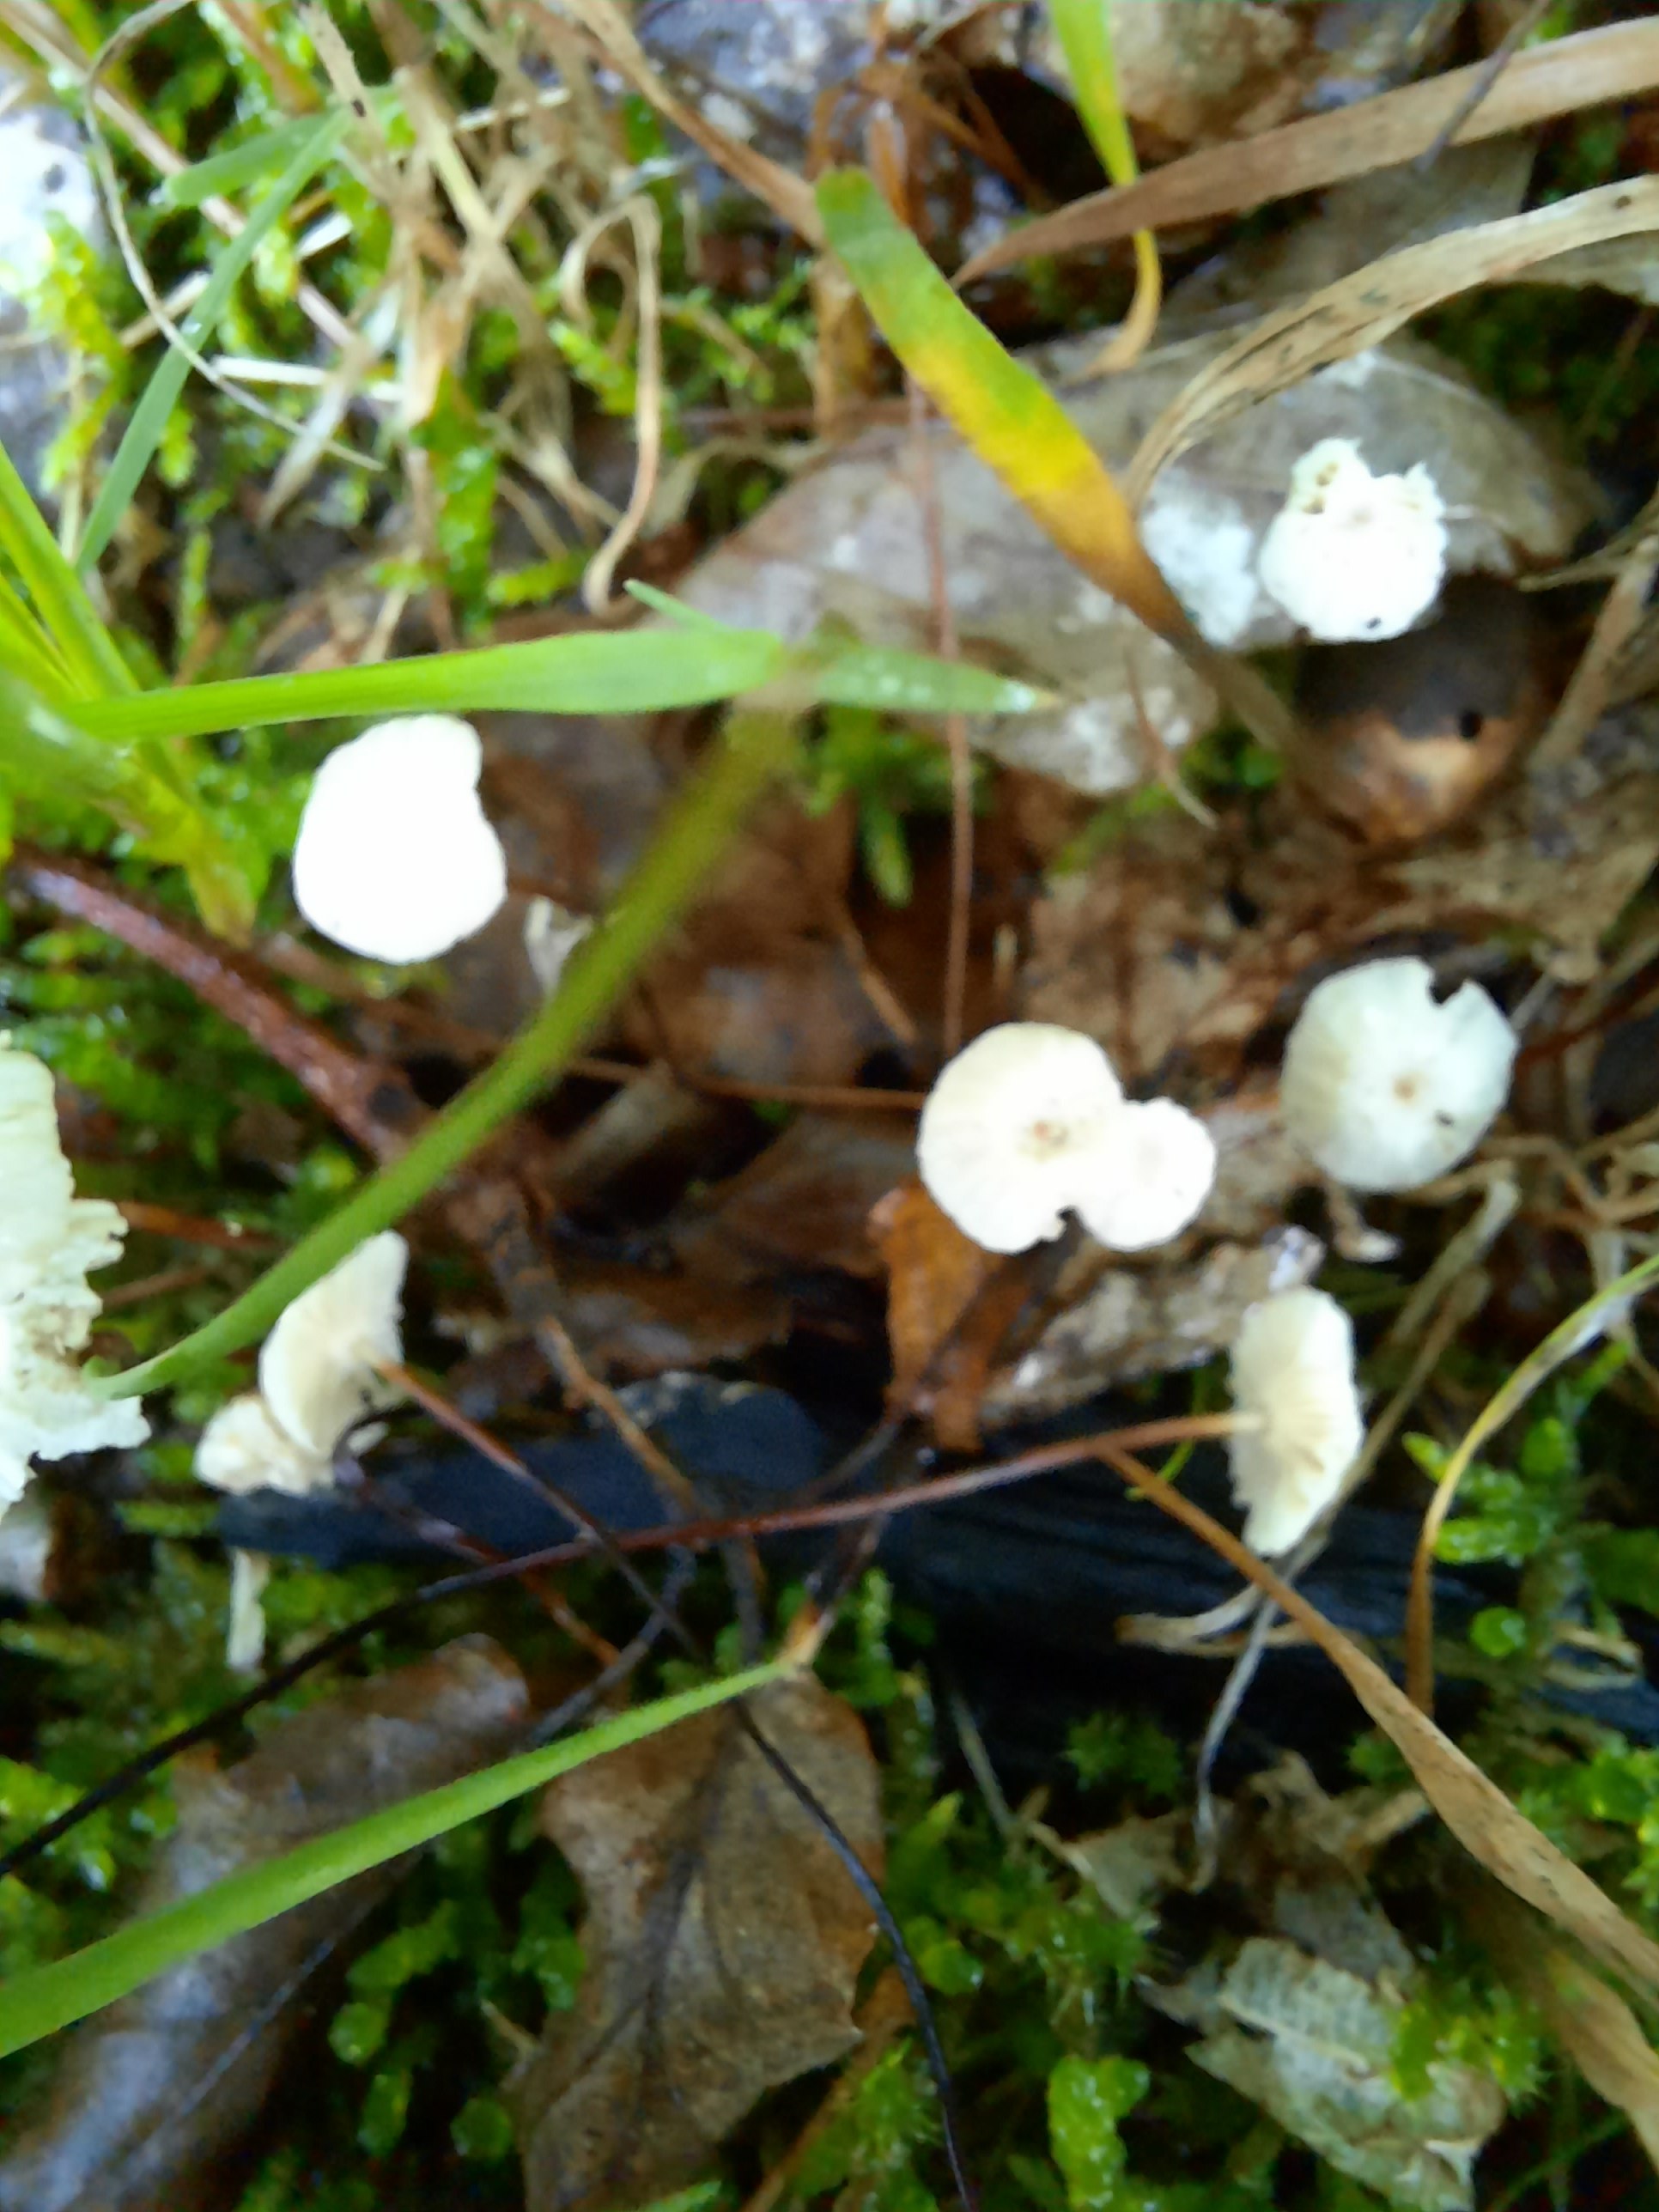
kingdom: Fungi
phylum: Basidiomycota
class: Agaricomycetes
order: Agaricales
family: Marasmiaceae
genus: Marasmius
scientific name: Marasmius rotula
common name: hjul-bruskhat
